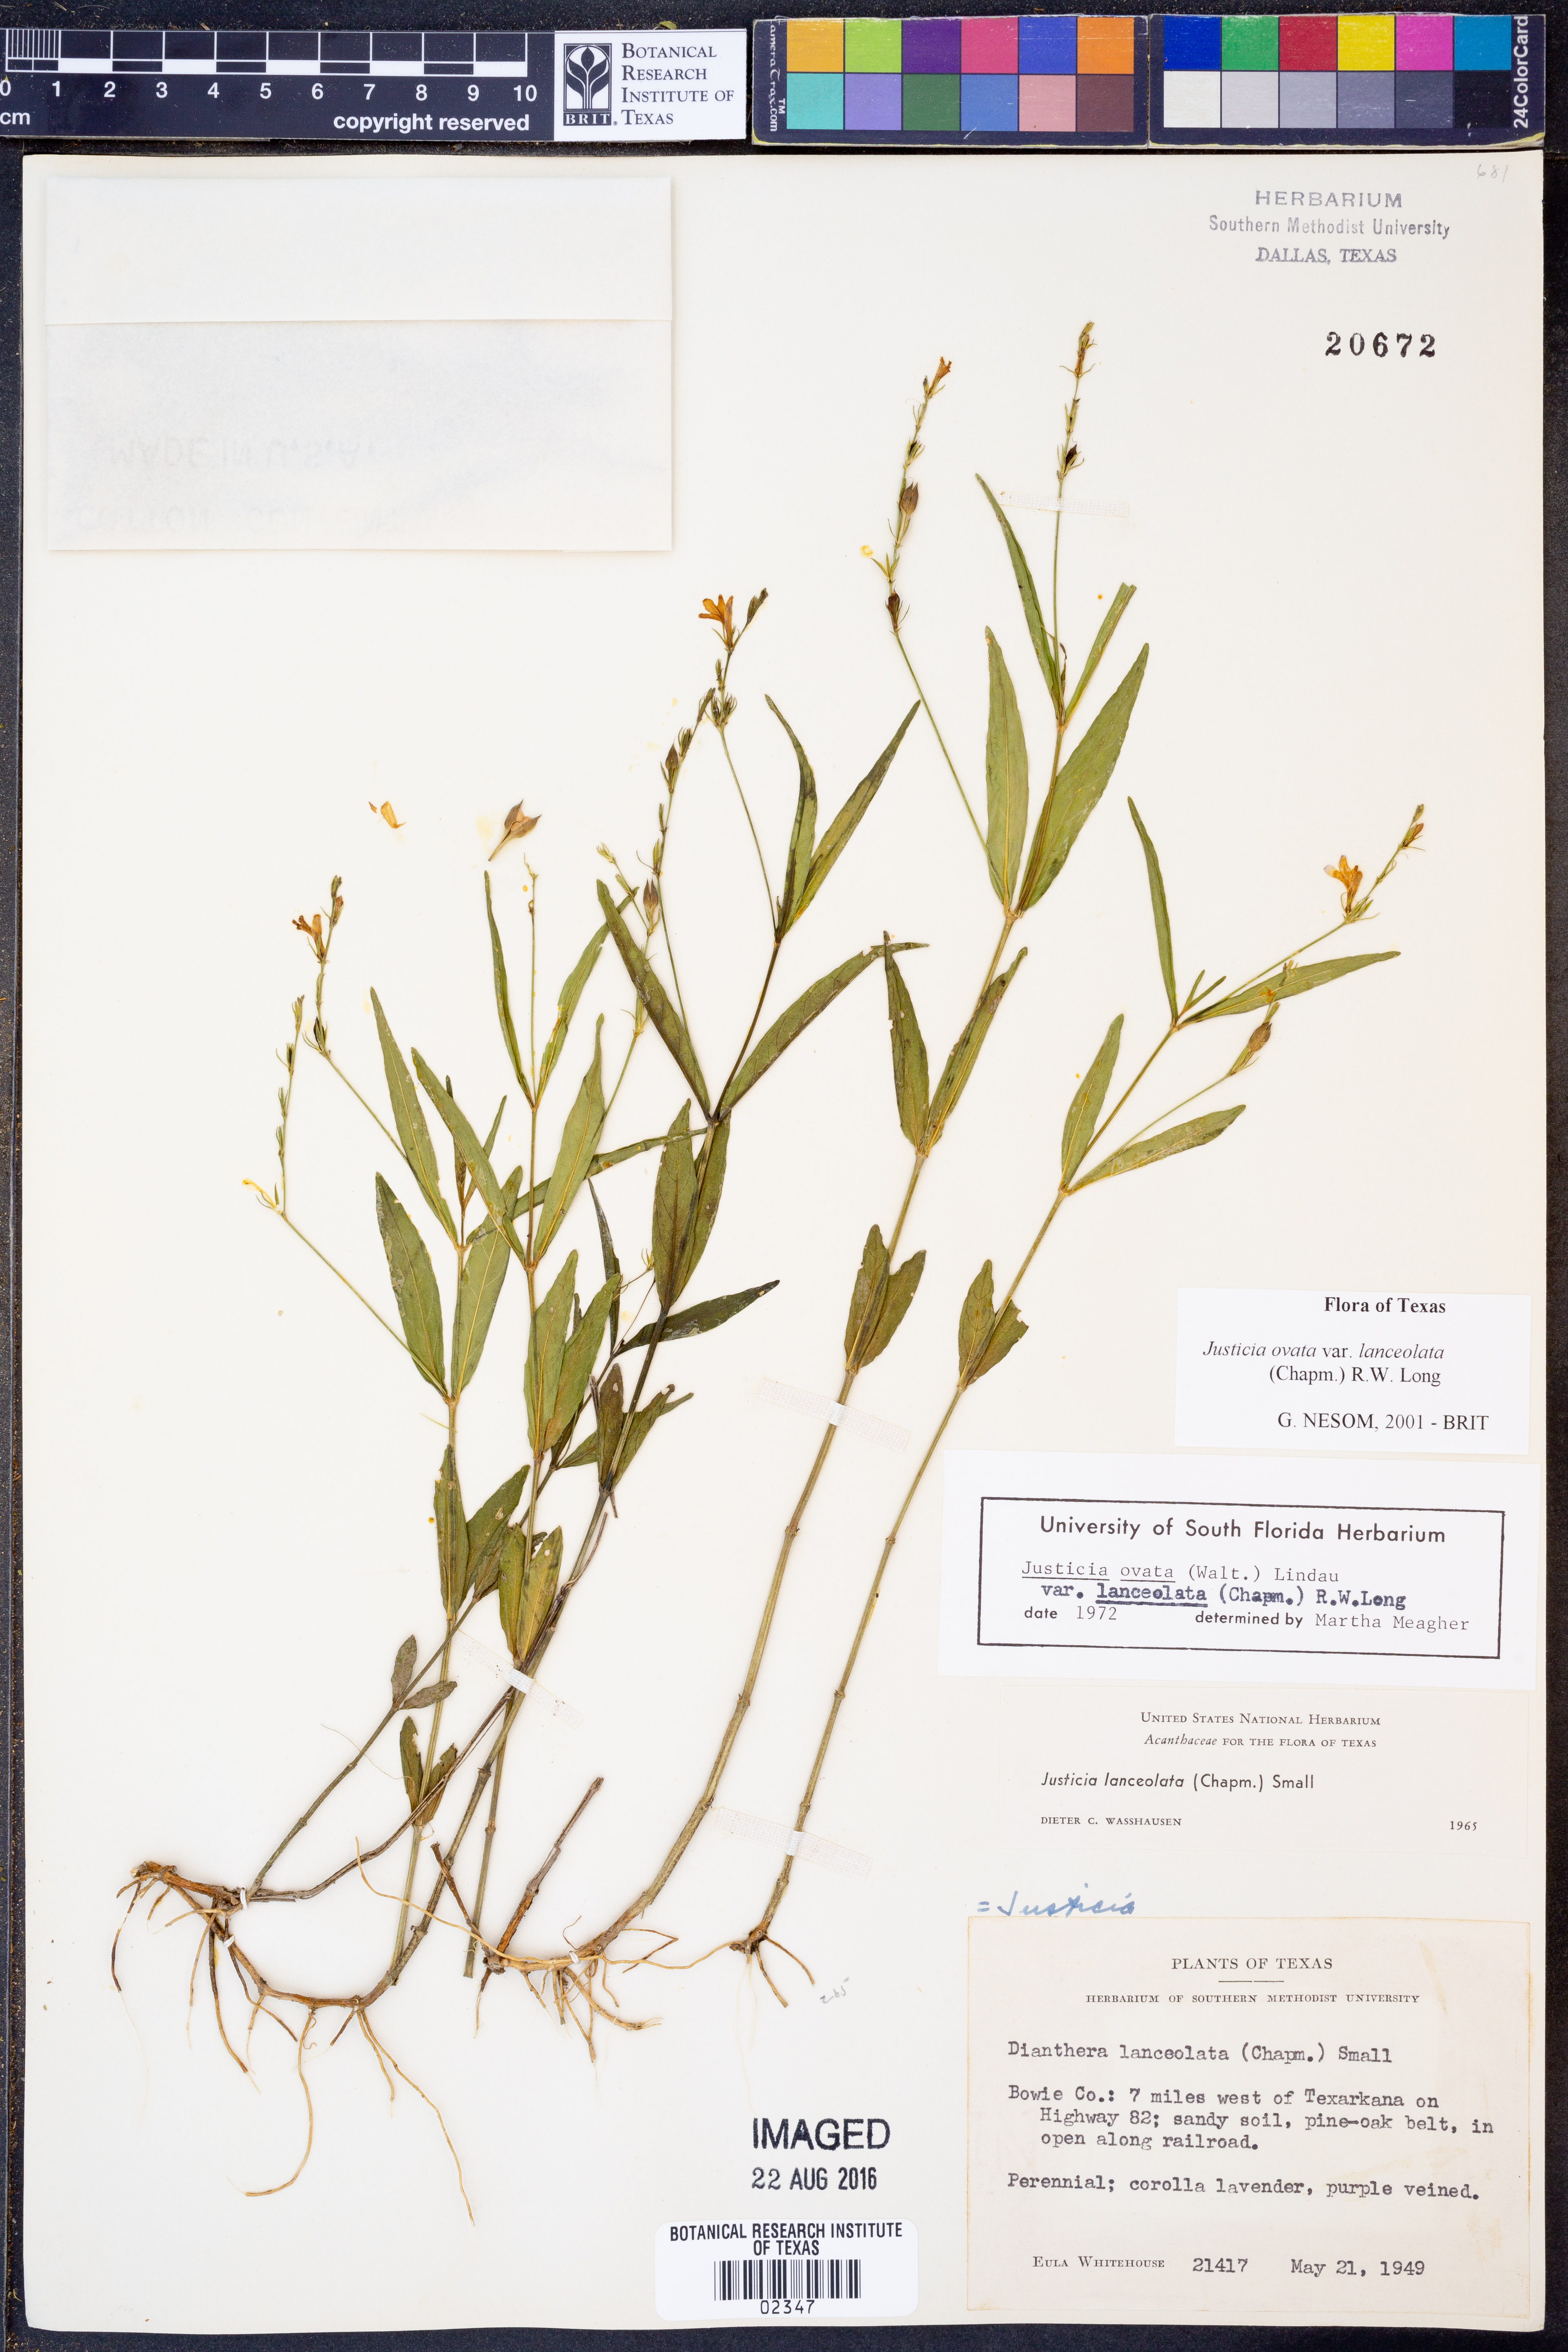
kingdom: Plantae
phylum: Tracheophyta
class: Magnoliopsida
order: Lamiales
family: Acanthaceae
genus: Justicia
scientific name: Justicia lanceolata
